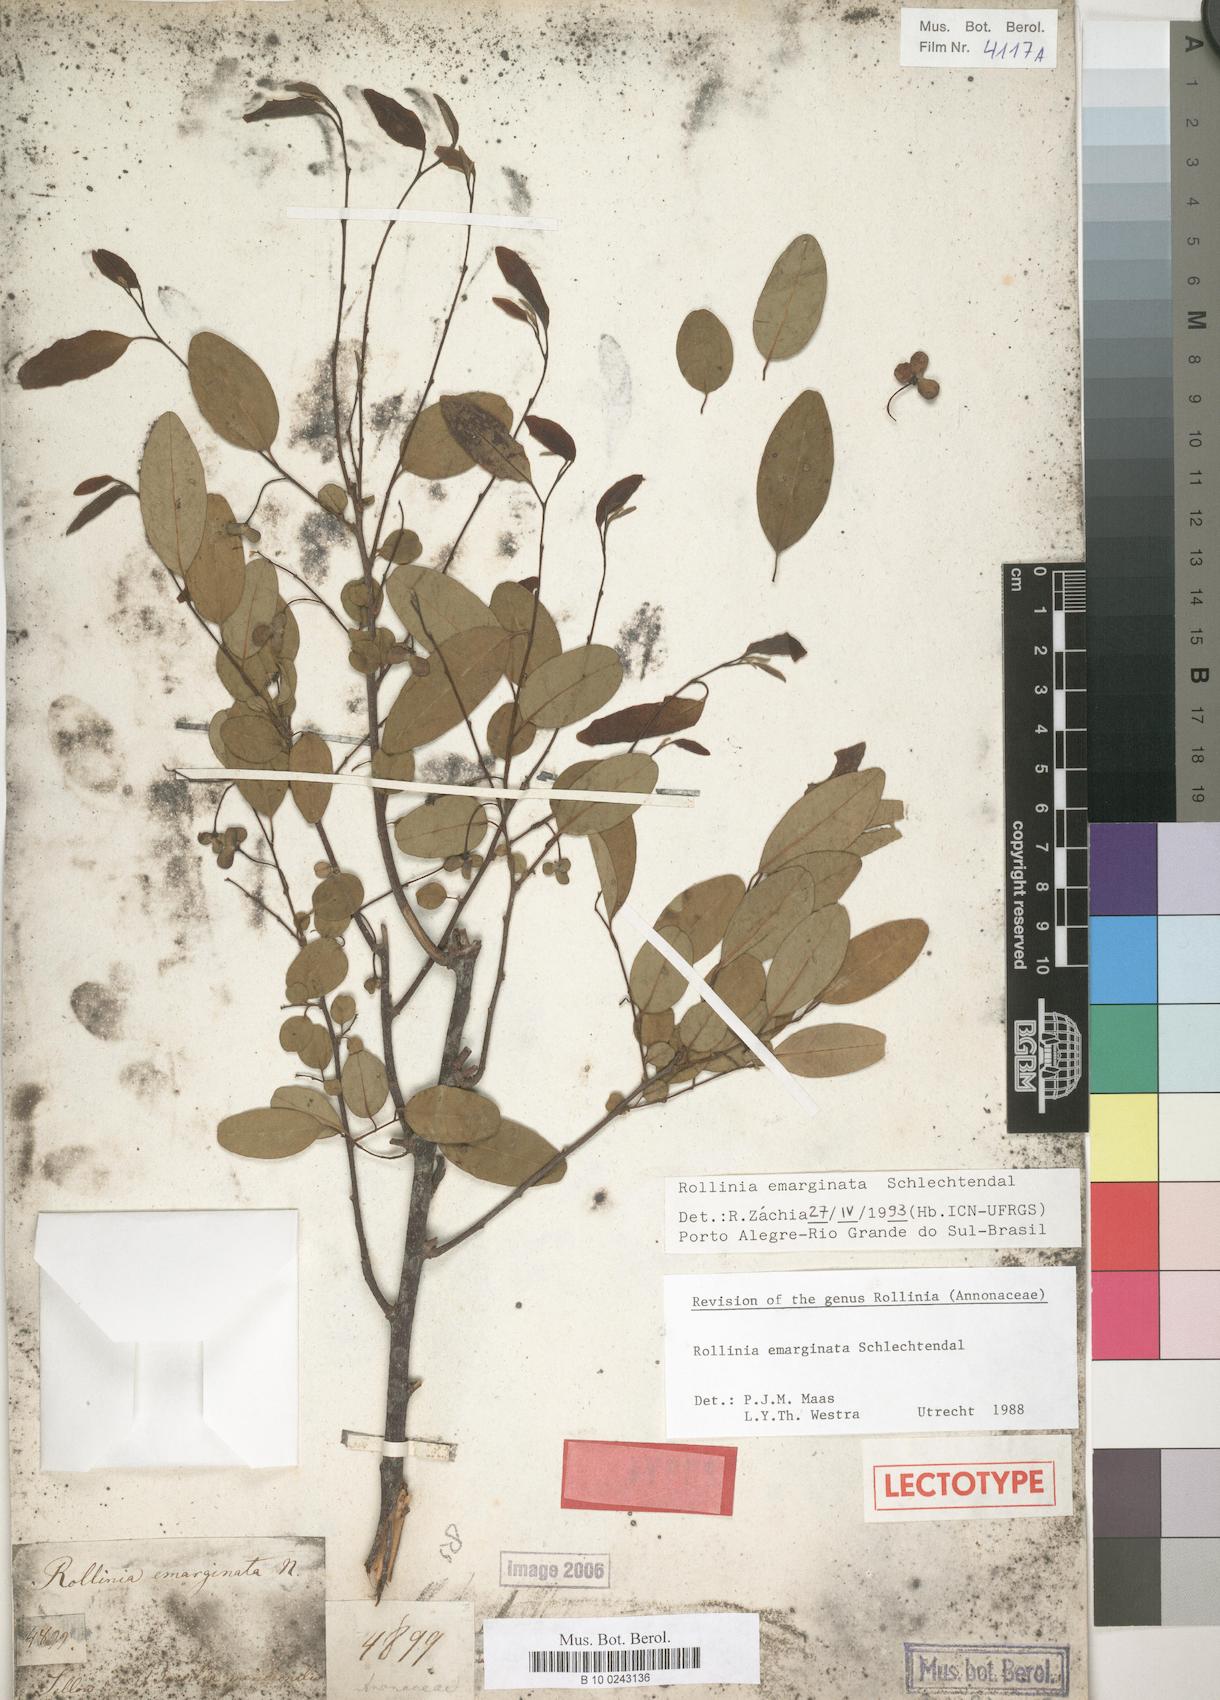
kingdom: Plantae
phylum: Tracheophyta
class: Magnoliopsida
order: Magnoliales
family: Annonaceae
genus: Annona
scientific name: Annona emarginata
